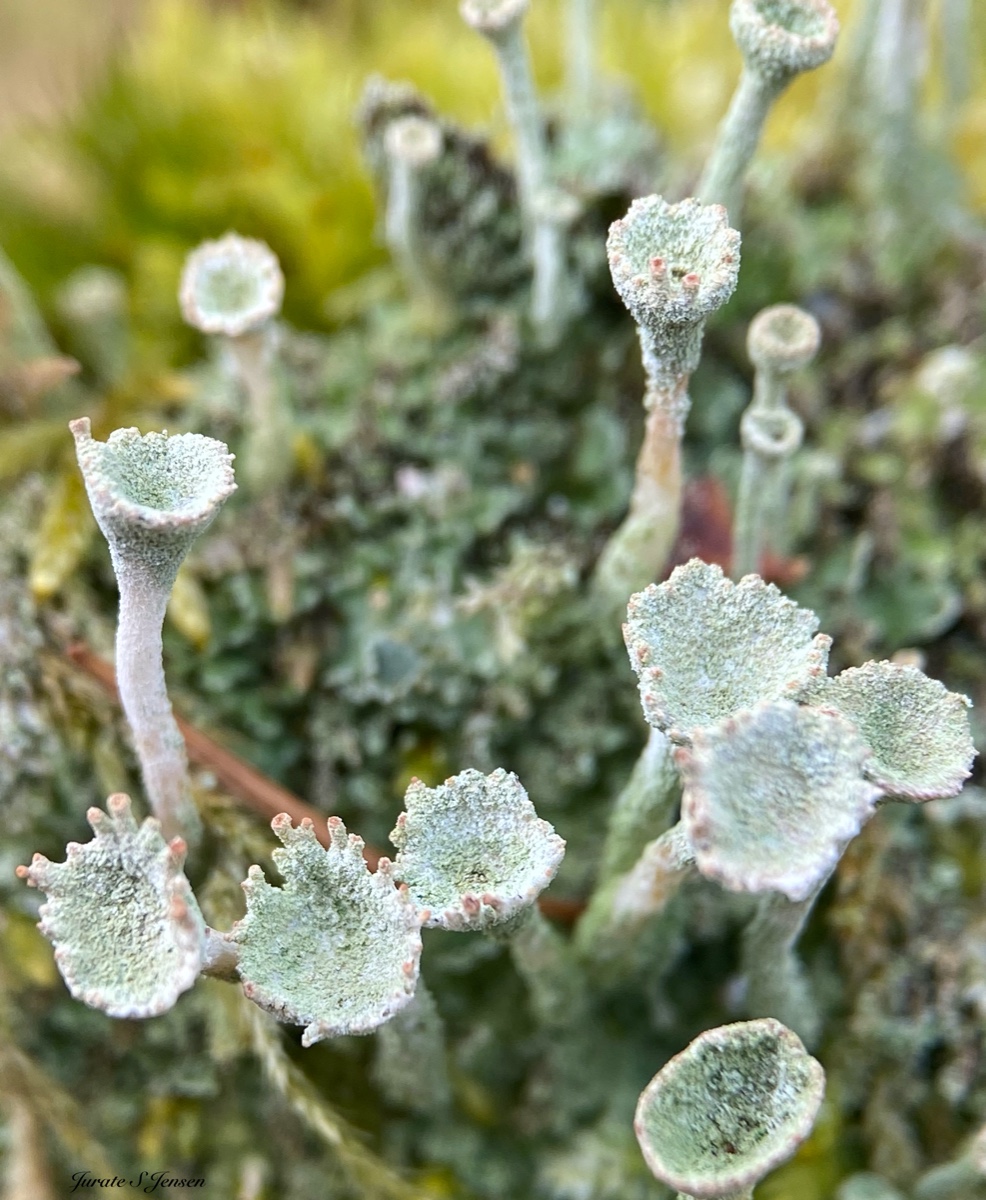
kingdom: Fungi
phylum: Ascomycota
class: Lecanoromycetes
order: Lecanorales
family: Cladoniaceae
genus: Cladonia
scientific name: Cladonia fimbriata
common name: bleggrøn bægerlav
